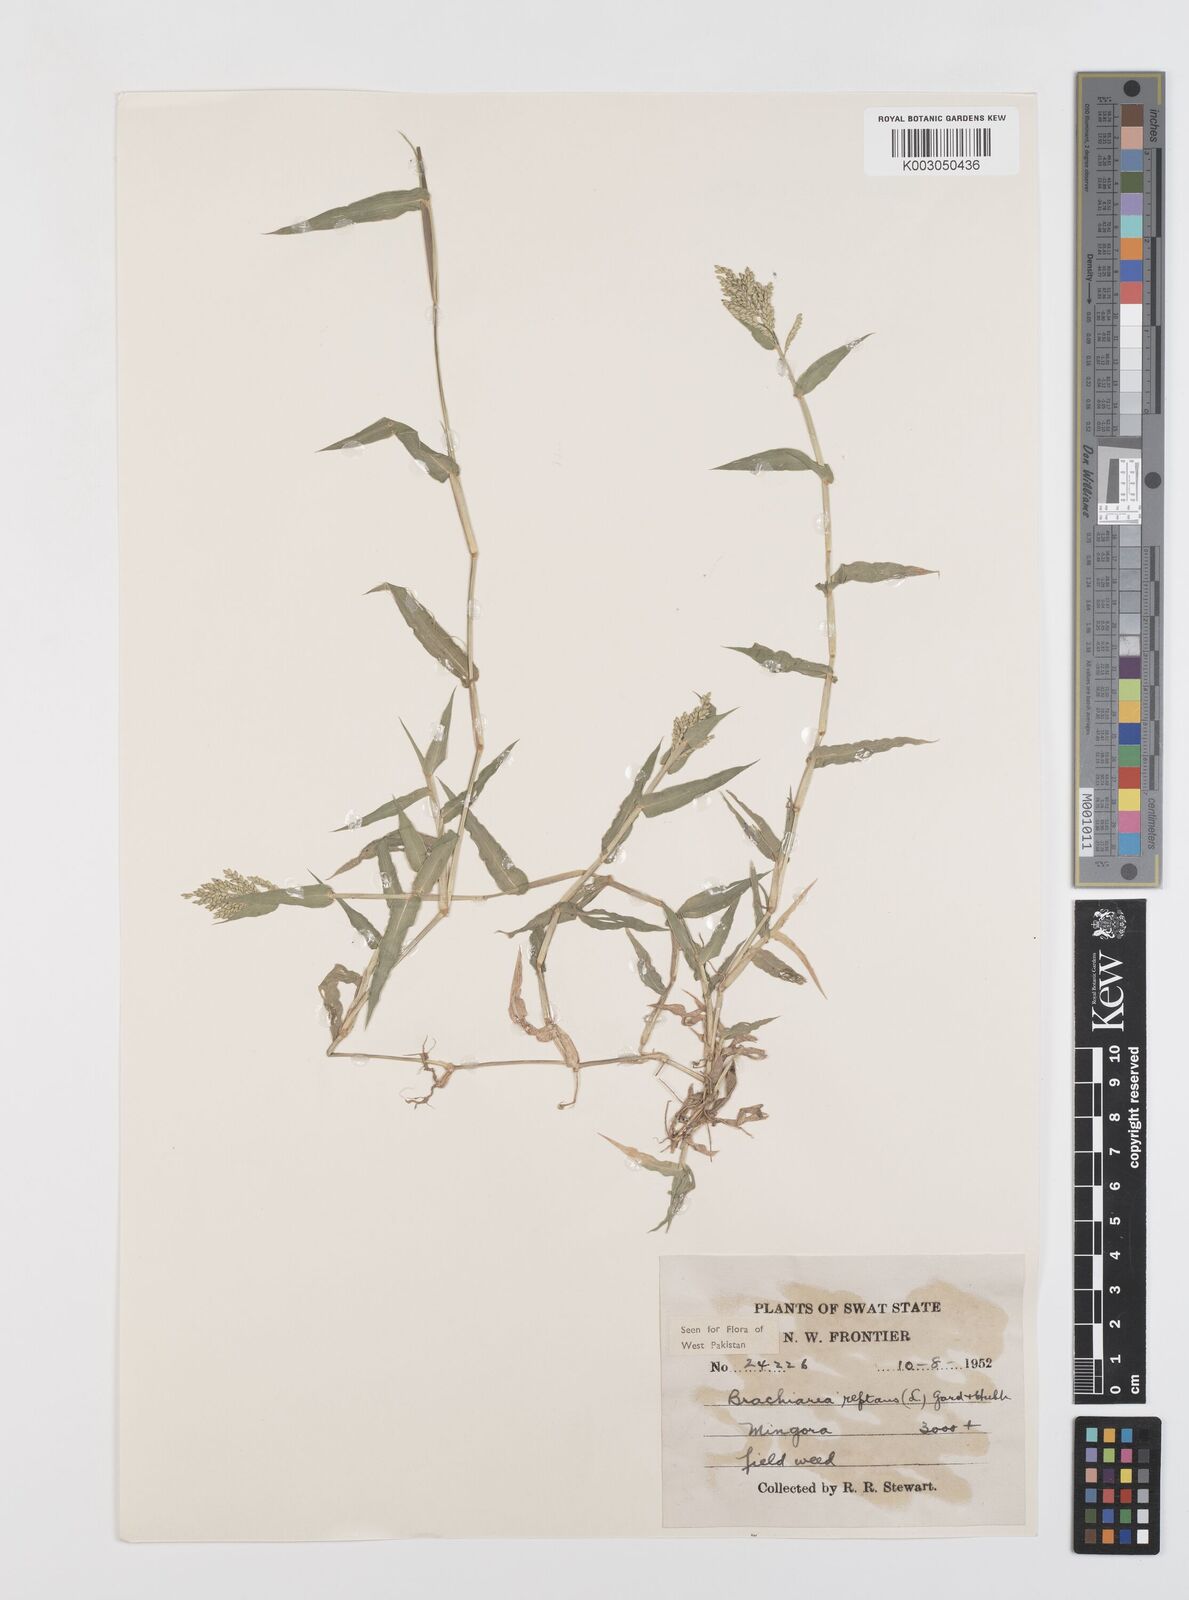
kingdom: Plantae
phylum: Tracheophyta
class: Liliopsida
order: Poales
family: Poaceae
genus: Urochloa
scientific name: Urochloa reptans
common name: Sprawling signalgrass
